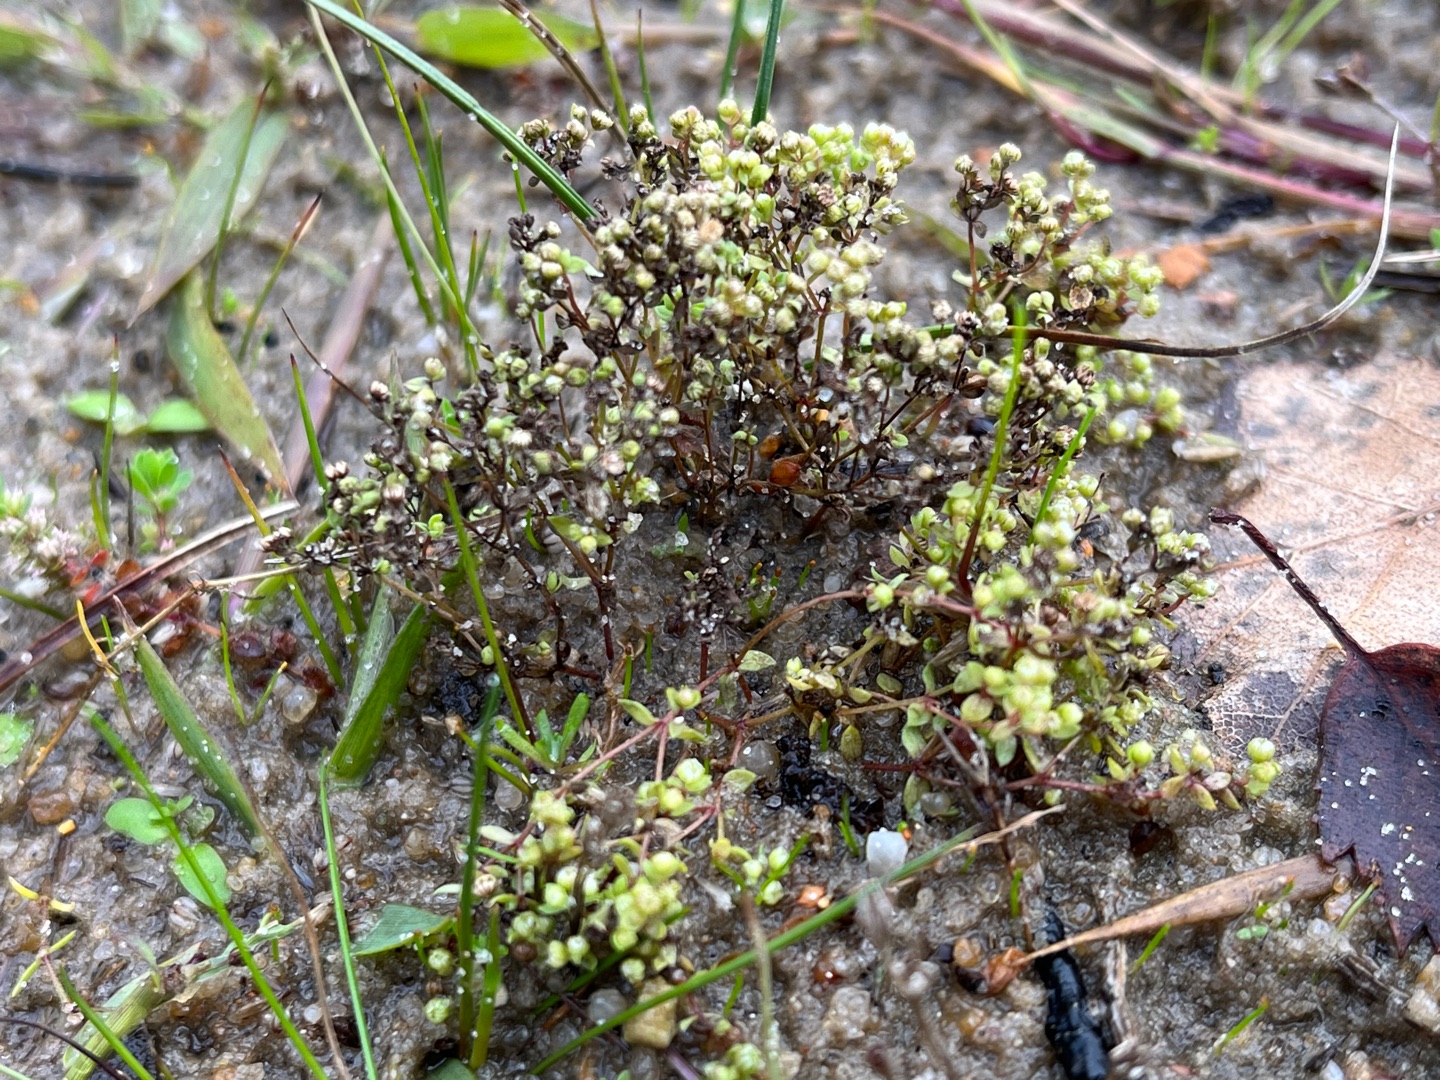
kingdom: Plantae
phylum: Tracheophyta
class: Magnoliopsida
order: Malpighiales
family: Linaceae
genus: Radiola
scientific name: Radiola linoides
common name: Tusindfrø
